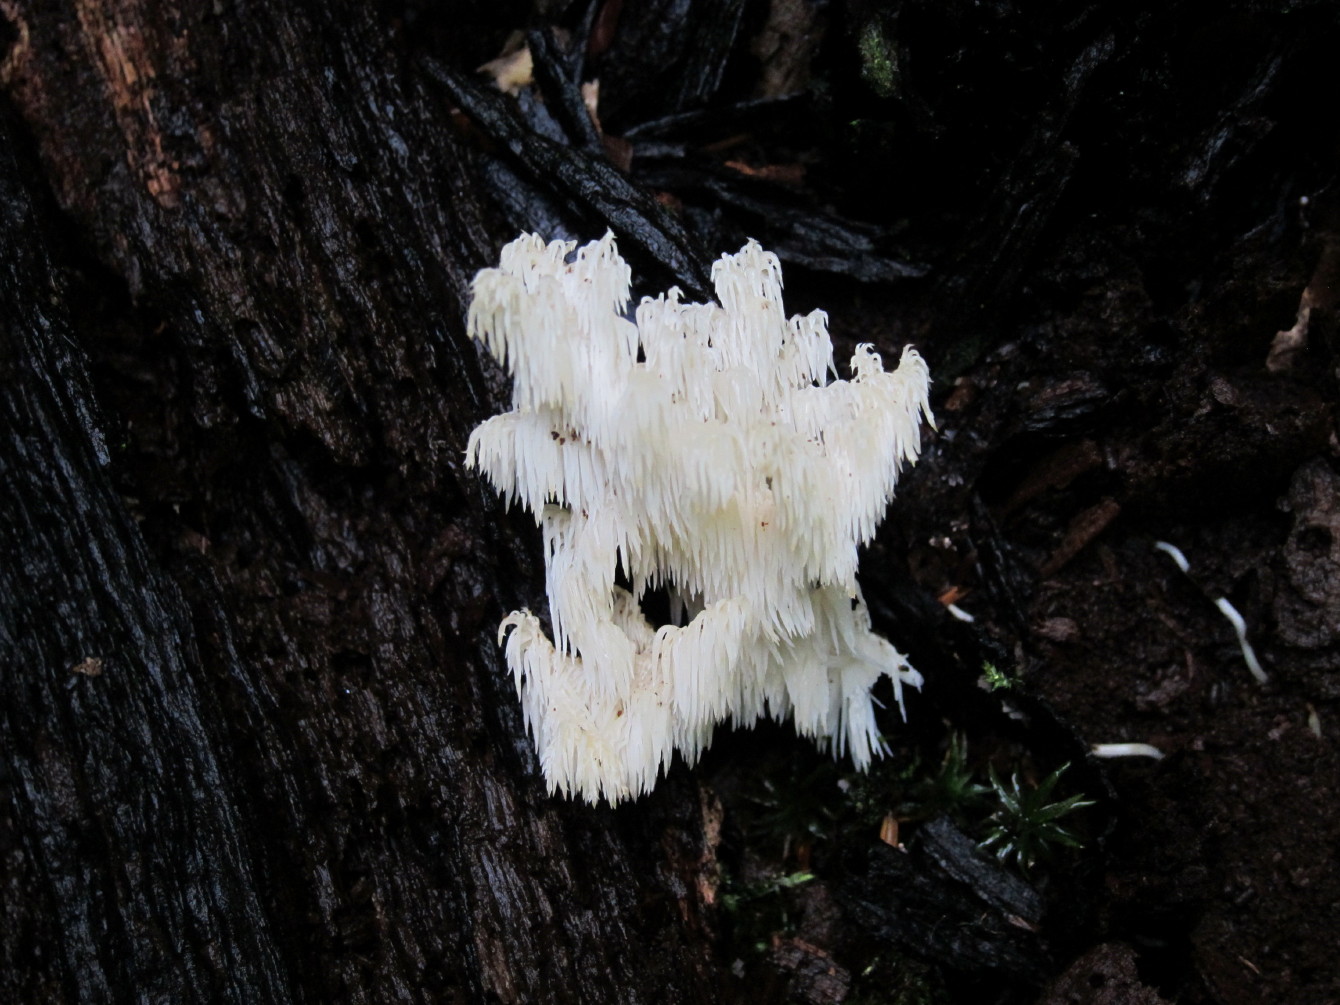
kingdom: Fungi
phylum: Basidiomycota
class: Agaricomycetes
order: Russulales
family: Hericiaceae
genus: Hericium
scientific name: Hericium coralloides
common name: koralpigsvamp
